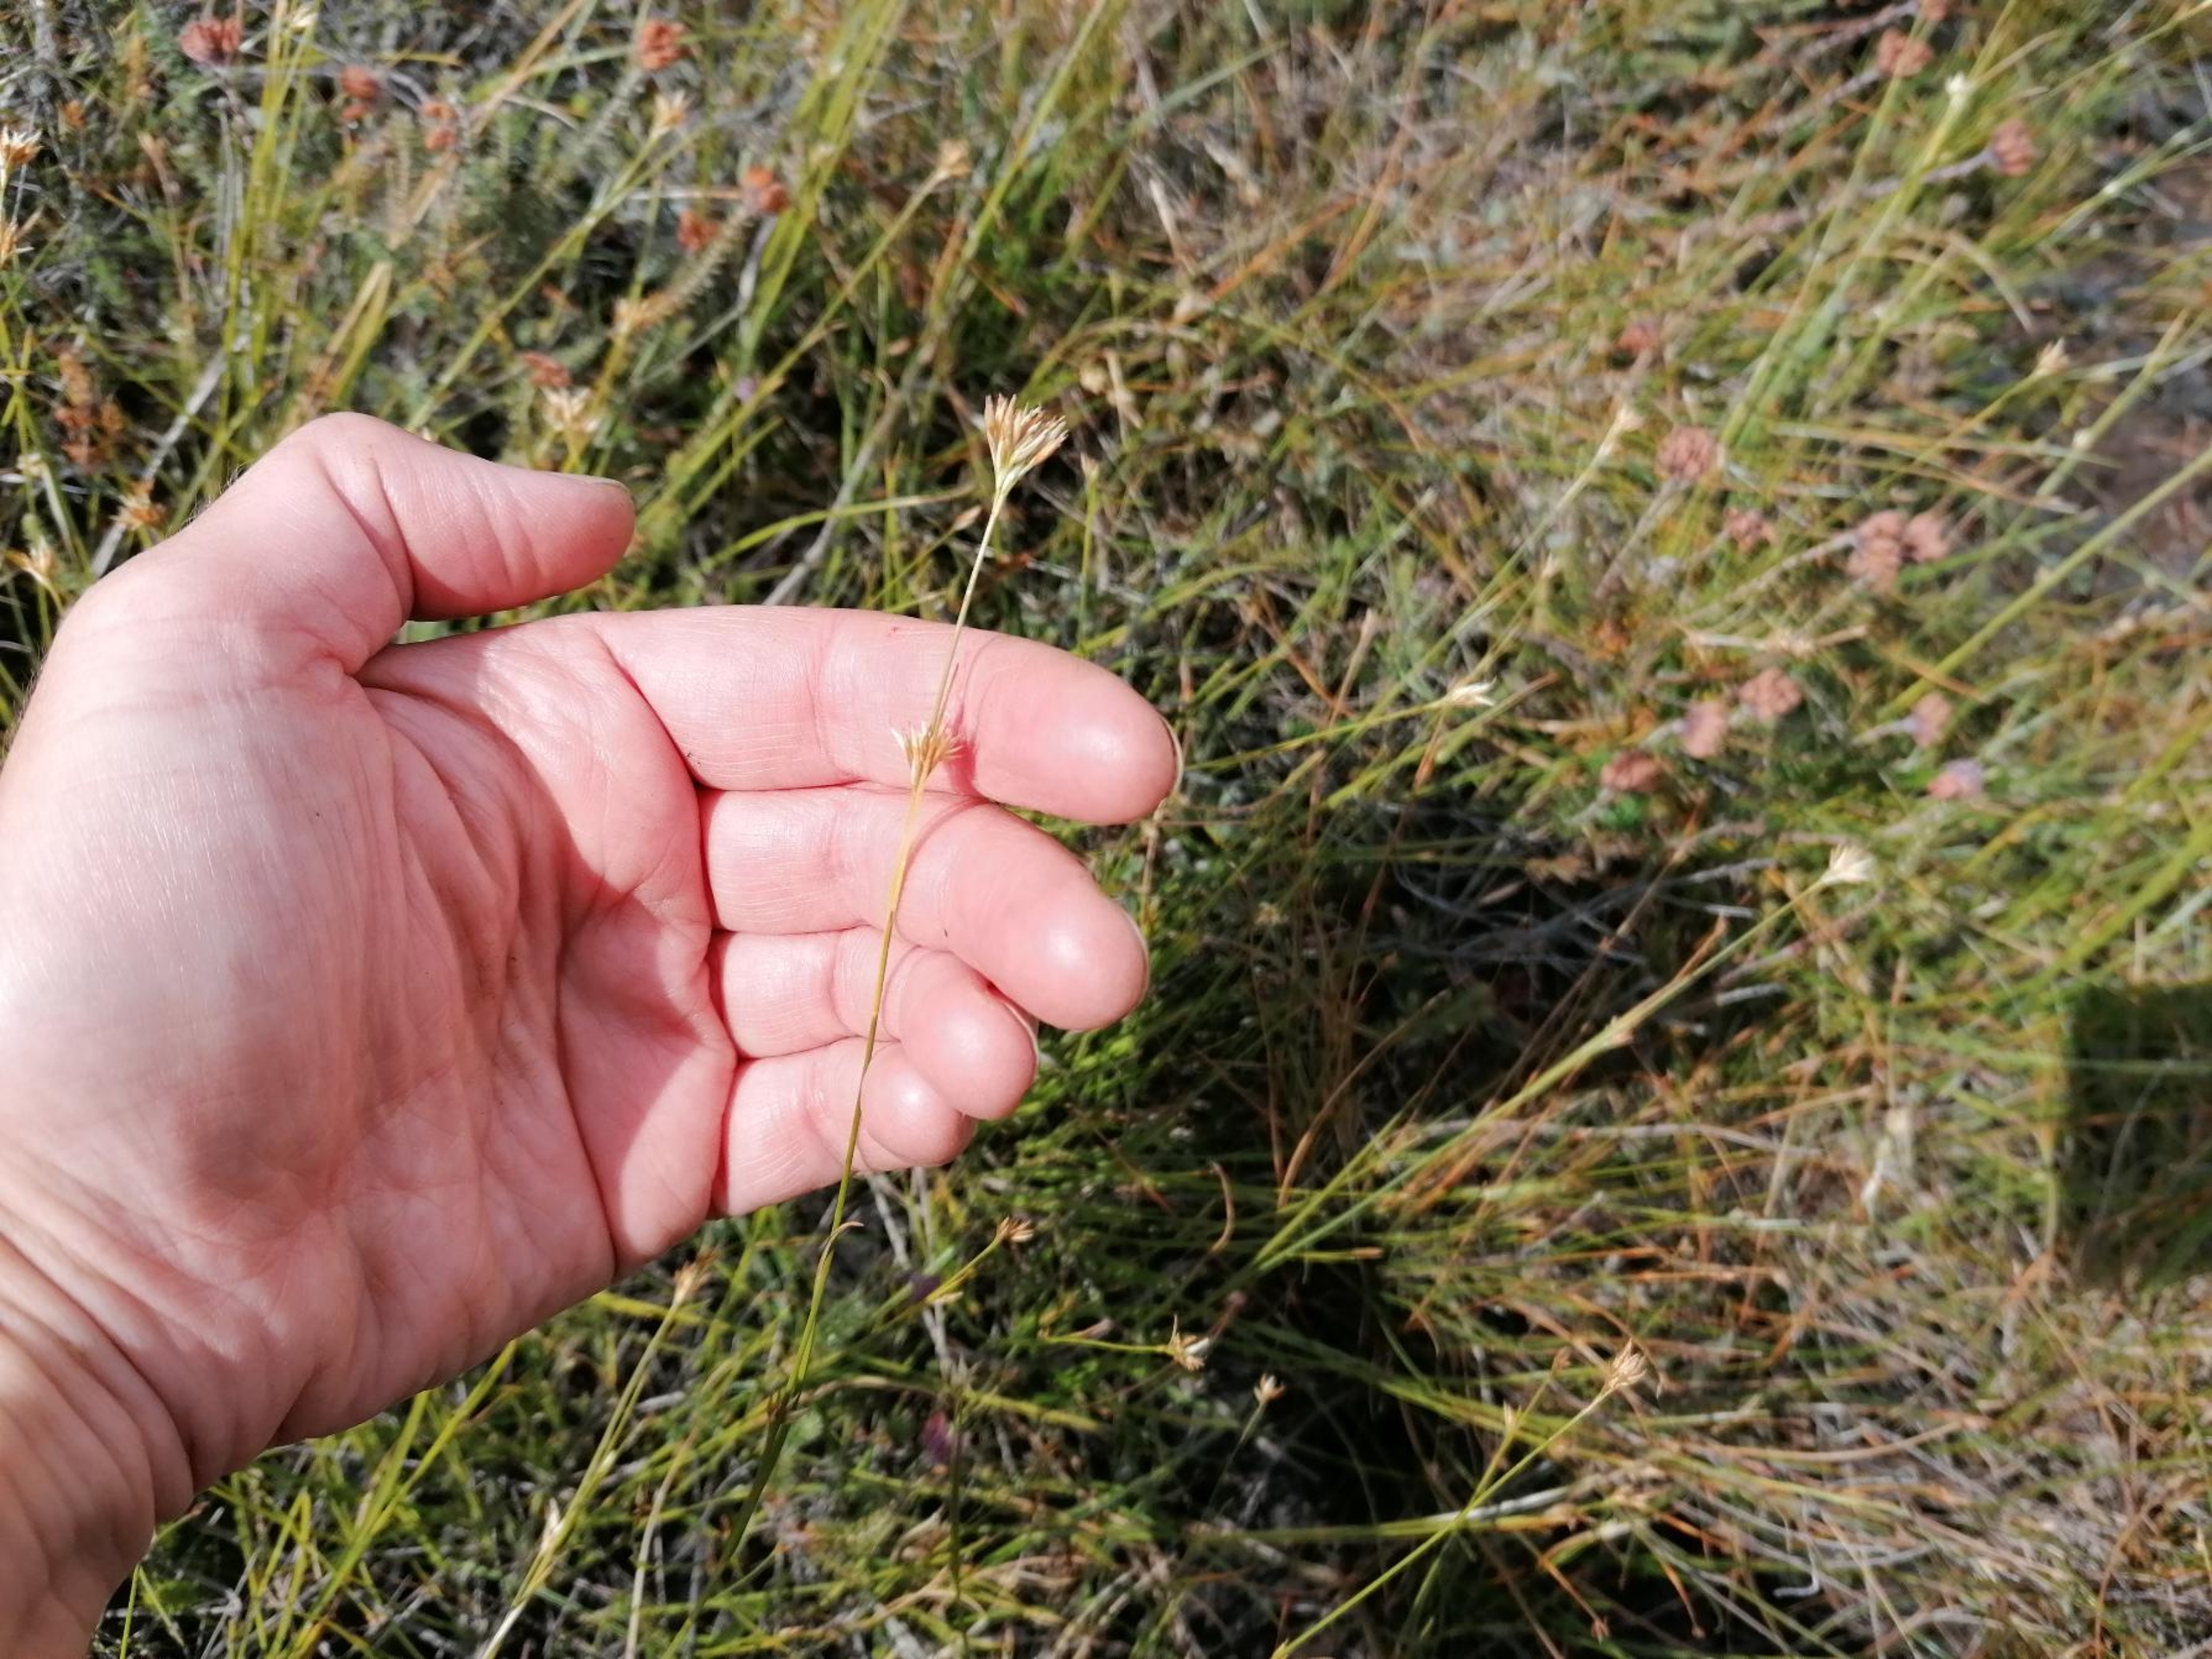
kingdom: Plantae
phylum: Tracheophyta
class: Liliopsida
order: Poales
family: Cyperaceae
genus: Rhynchospora
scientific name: Rhynchospora alba
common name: Hvid næbfrø
